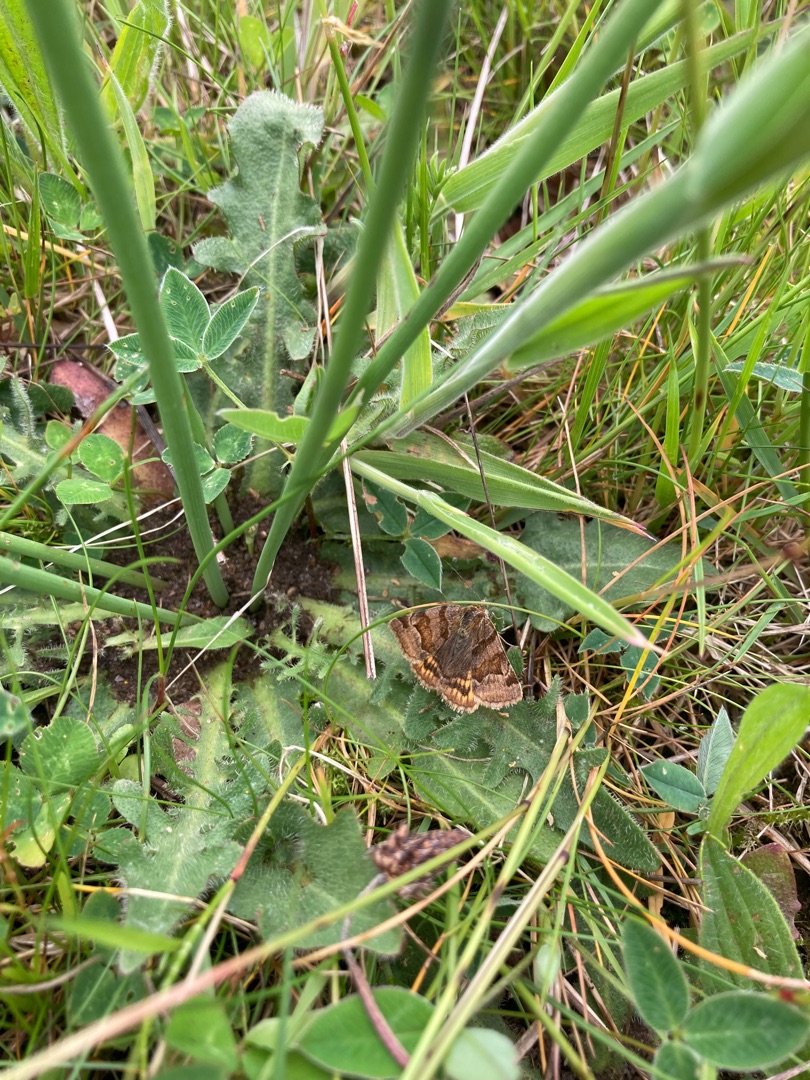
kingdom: Animalia
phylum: Arthropoda
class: Insecta
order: Lepidoptera
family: Erebidae
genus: Euclidia
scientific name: Euclidia glyphica
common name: Brun kløverugle
